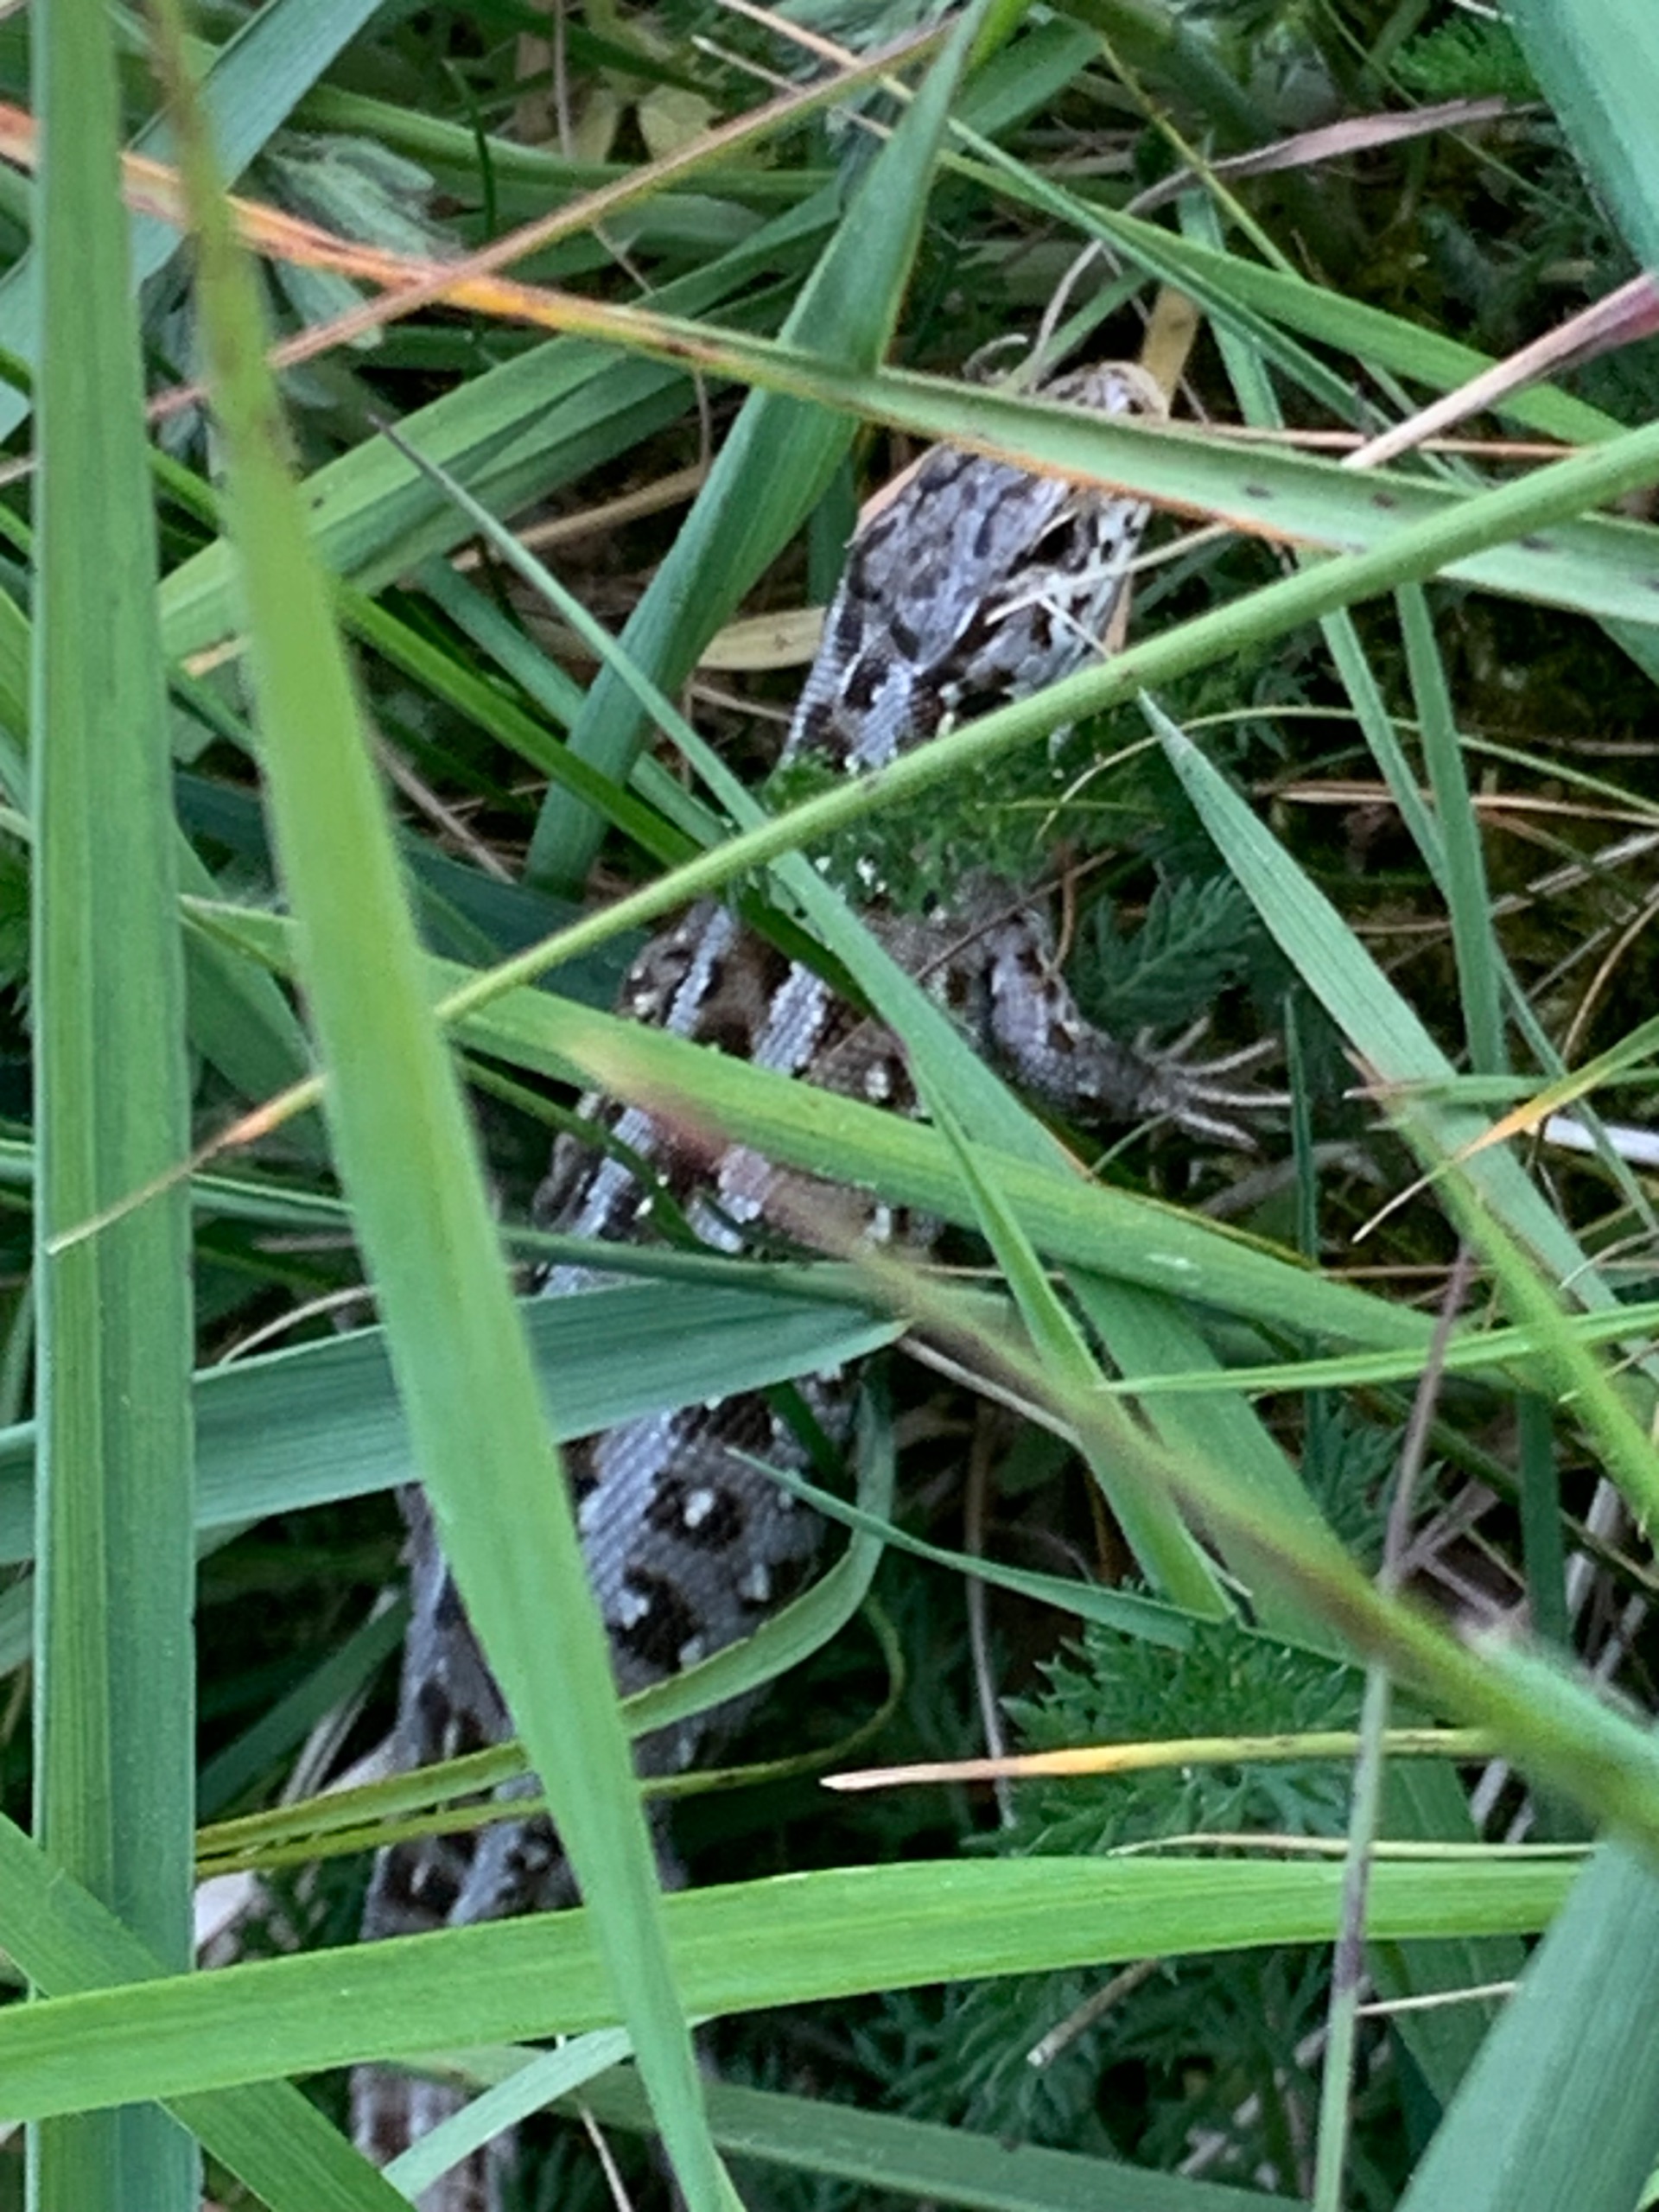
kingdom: Animalia
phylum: Chordata
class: Squamata
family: Lacertidae
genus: Lacerta
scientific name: Lacerta agilis
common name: Markfirben
